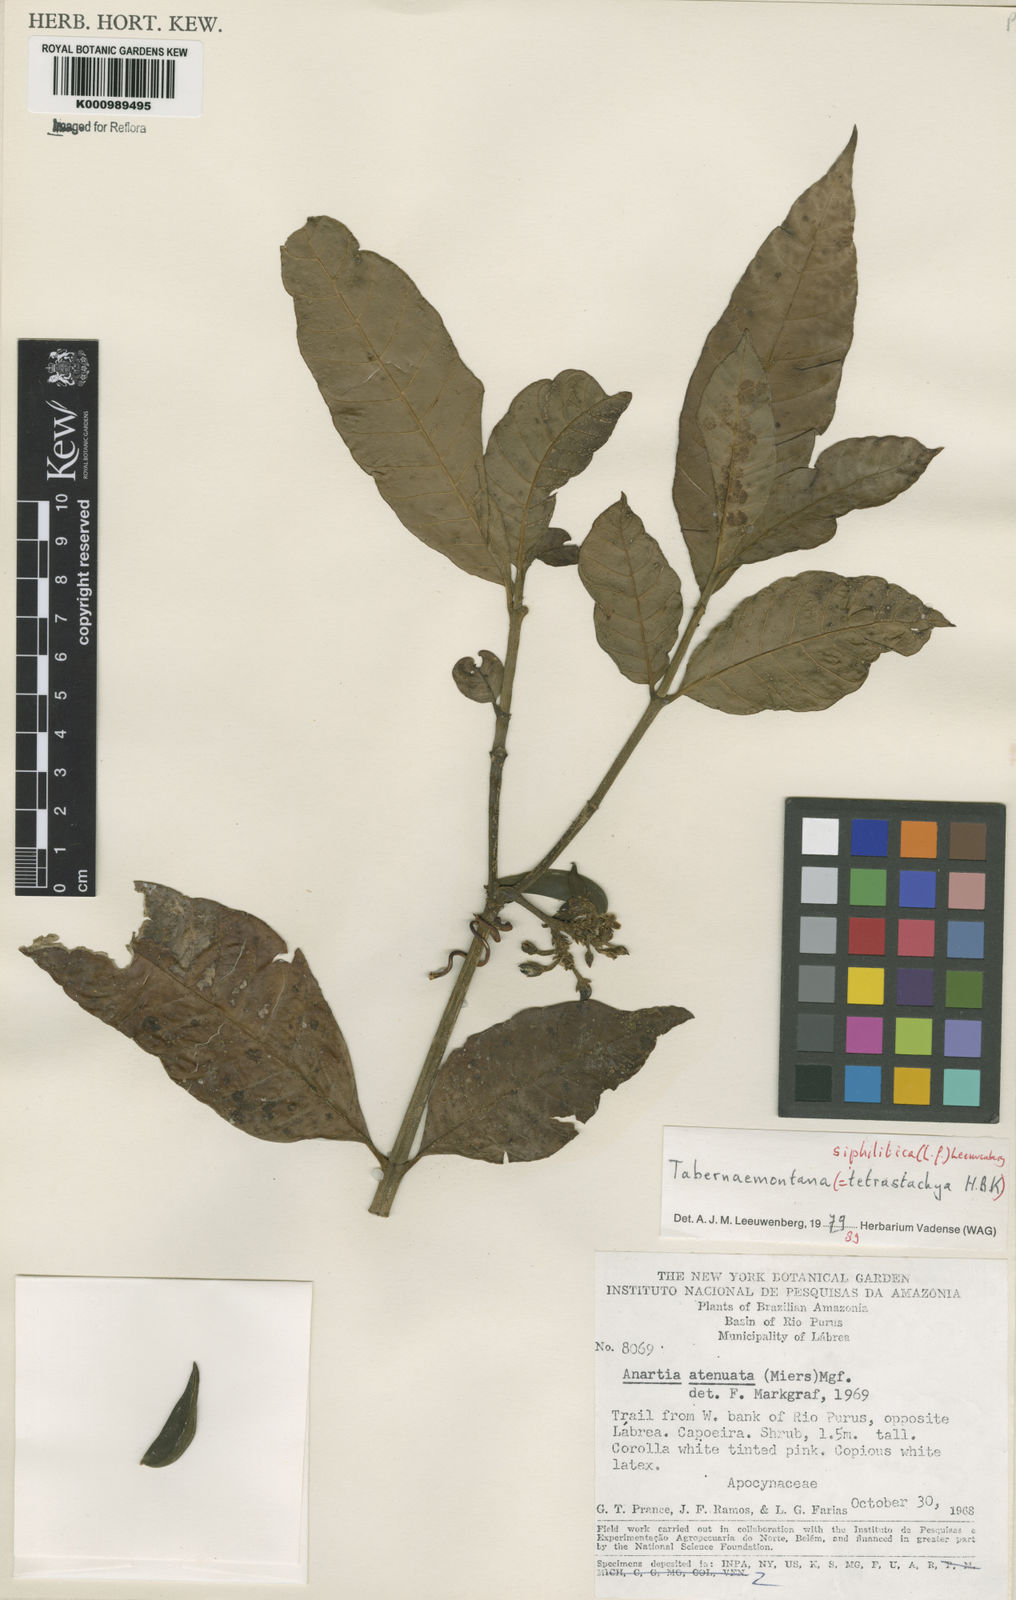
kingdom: Plantae
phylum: Tracheophyta
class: Magnoliopsida
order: Gentianales
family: Apocynaceae
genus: Tabernaemontana
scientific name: Tabernaemontana siphilitica
